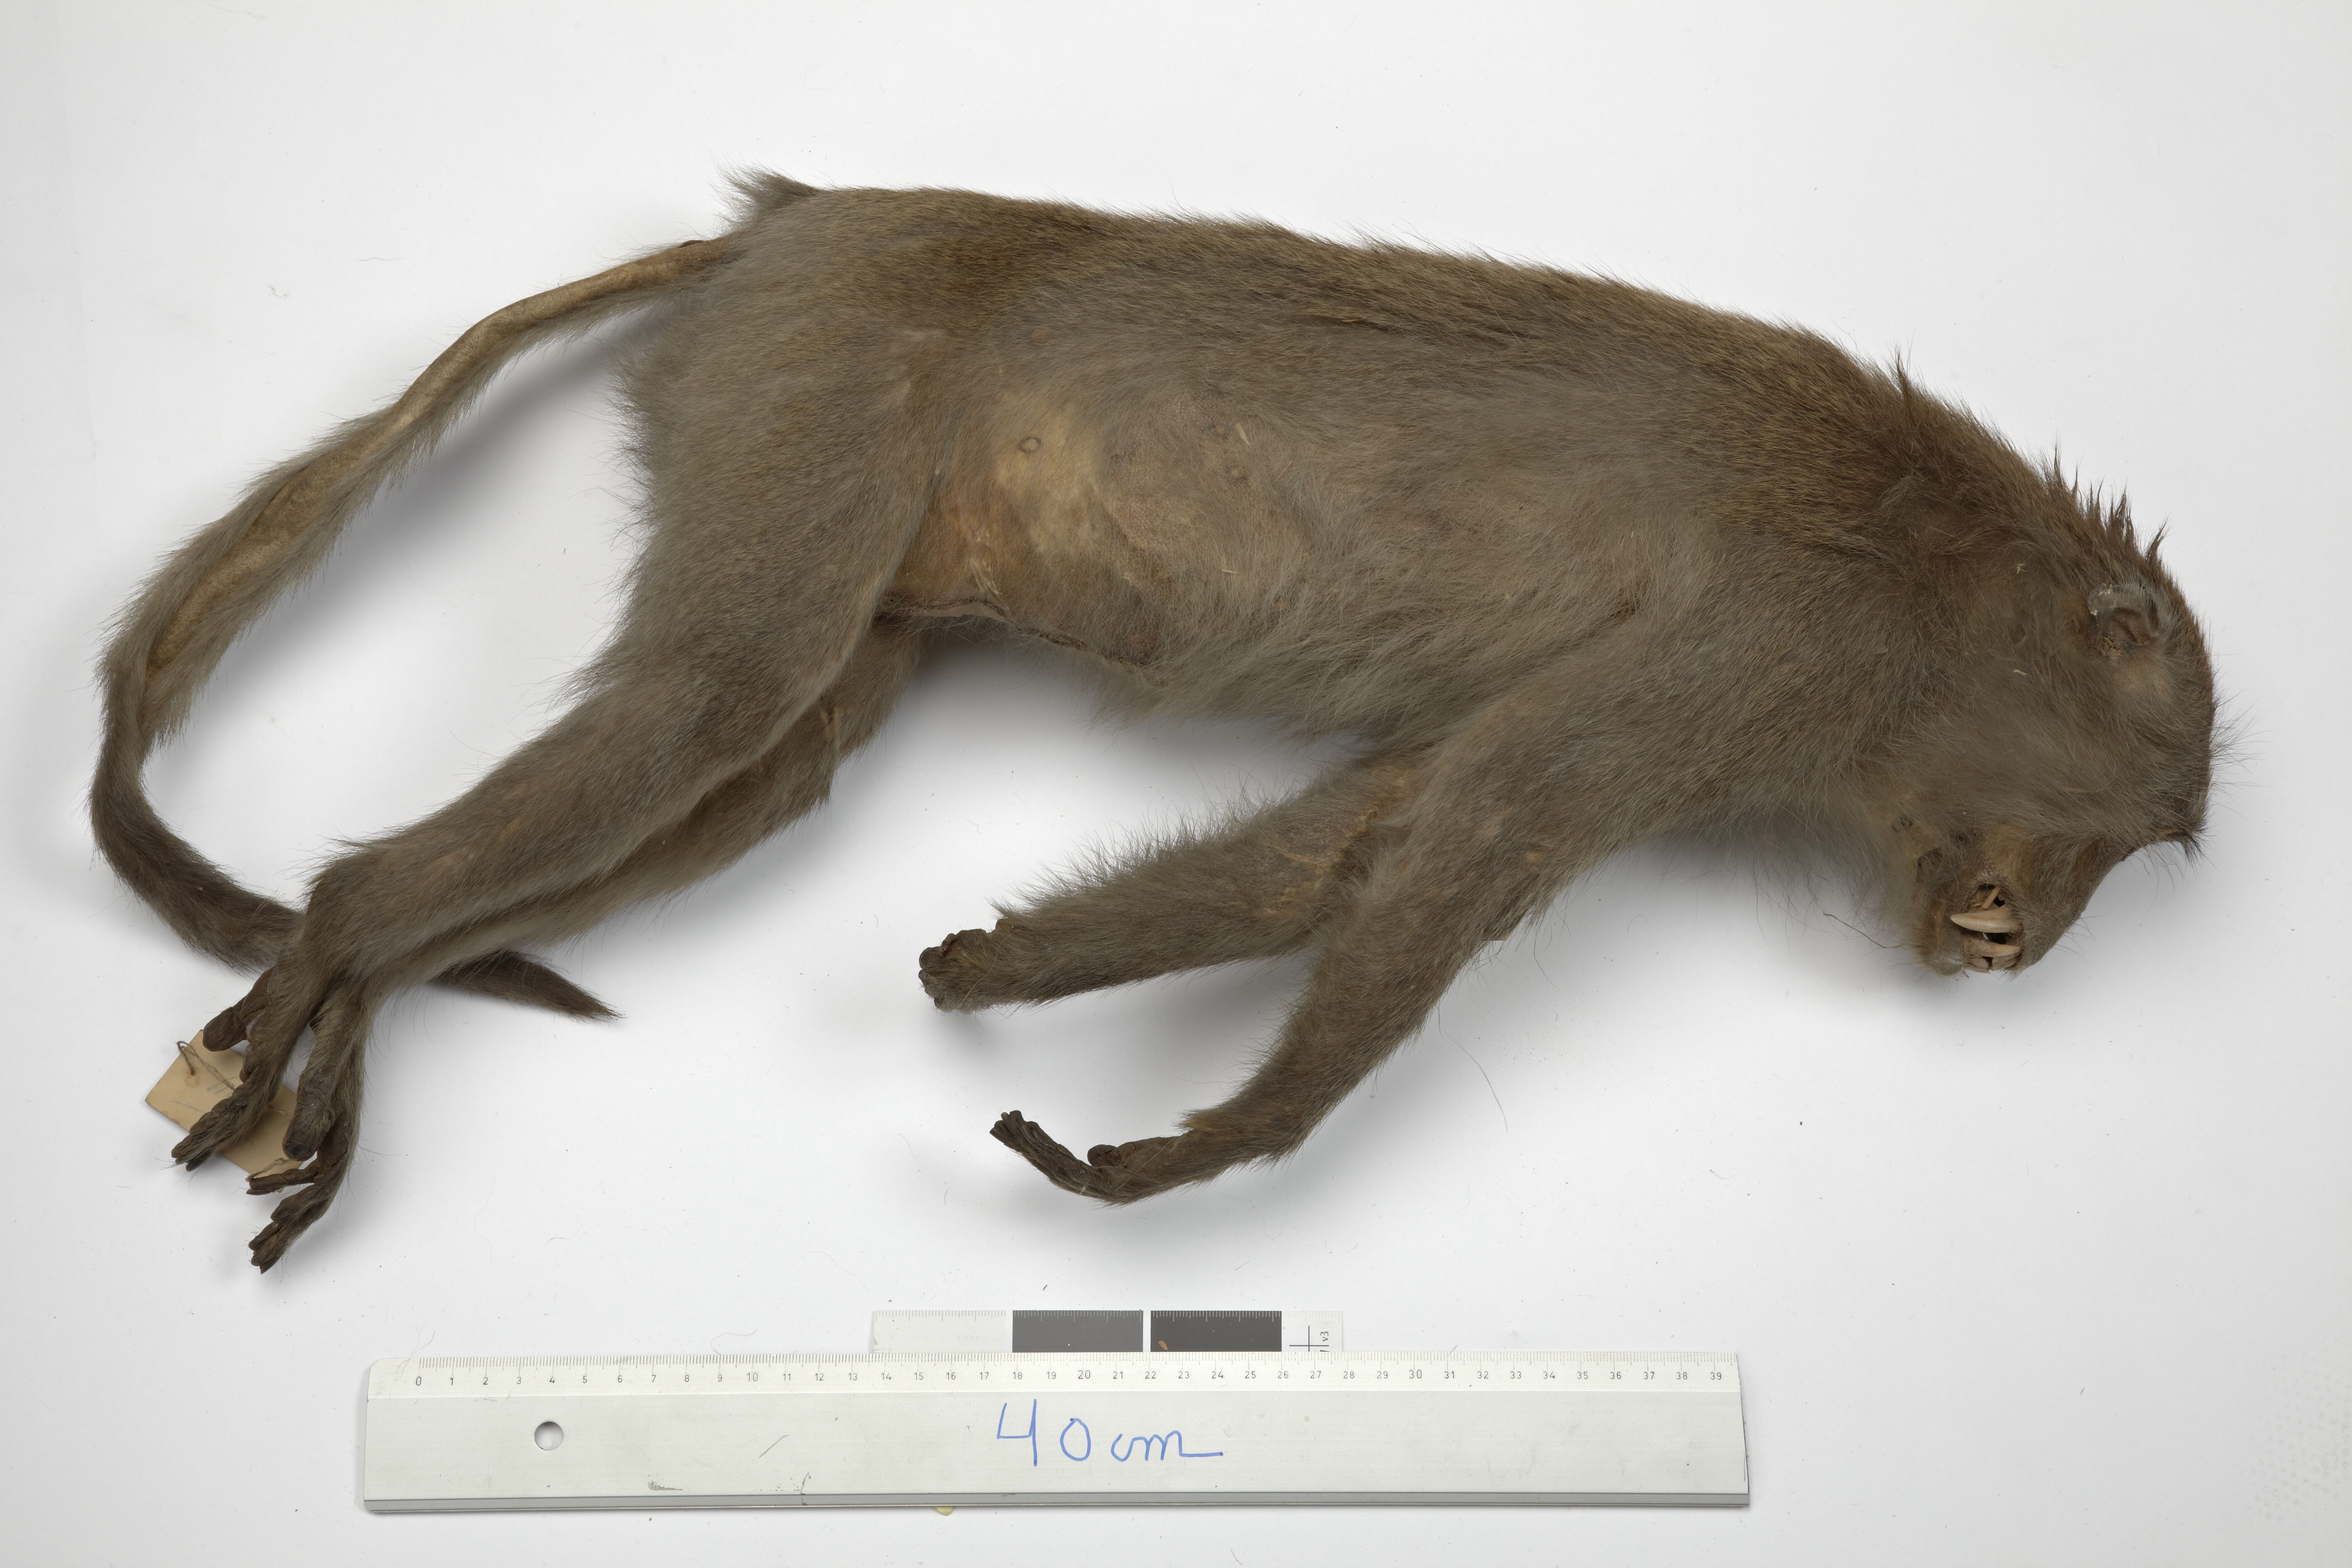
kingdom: Animalia
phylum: Chordata
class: Mammalia
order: Primates
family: Cercopithecidae
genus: Macaca
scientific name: Macaca fascicularis
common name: Crab-eating macaque
